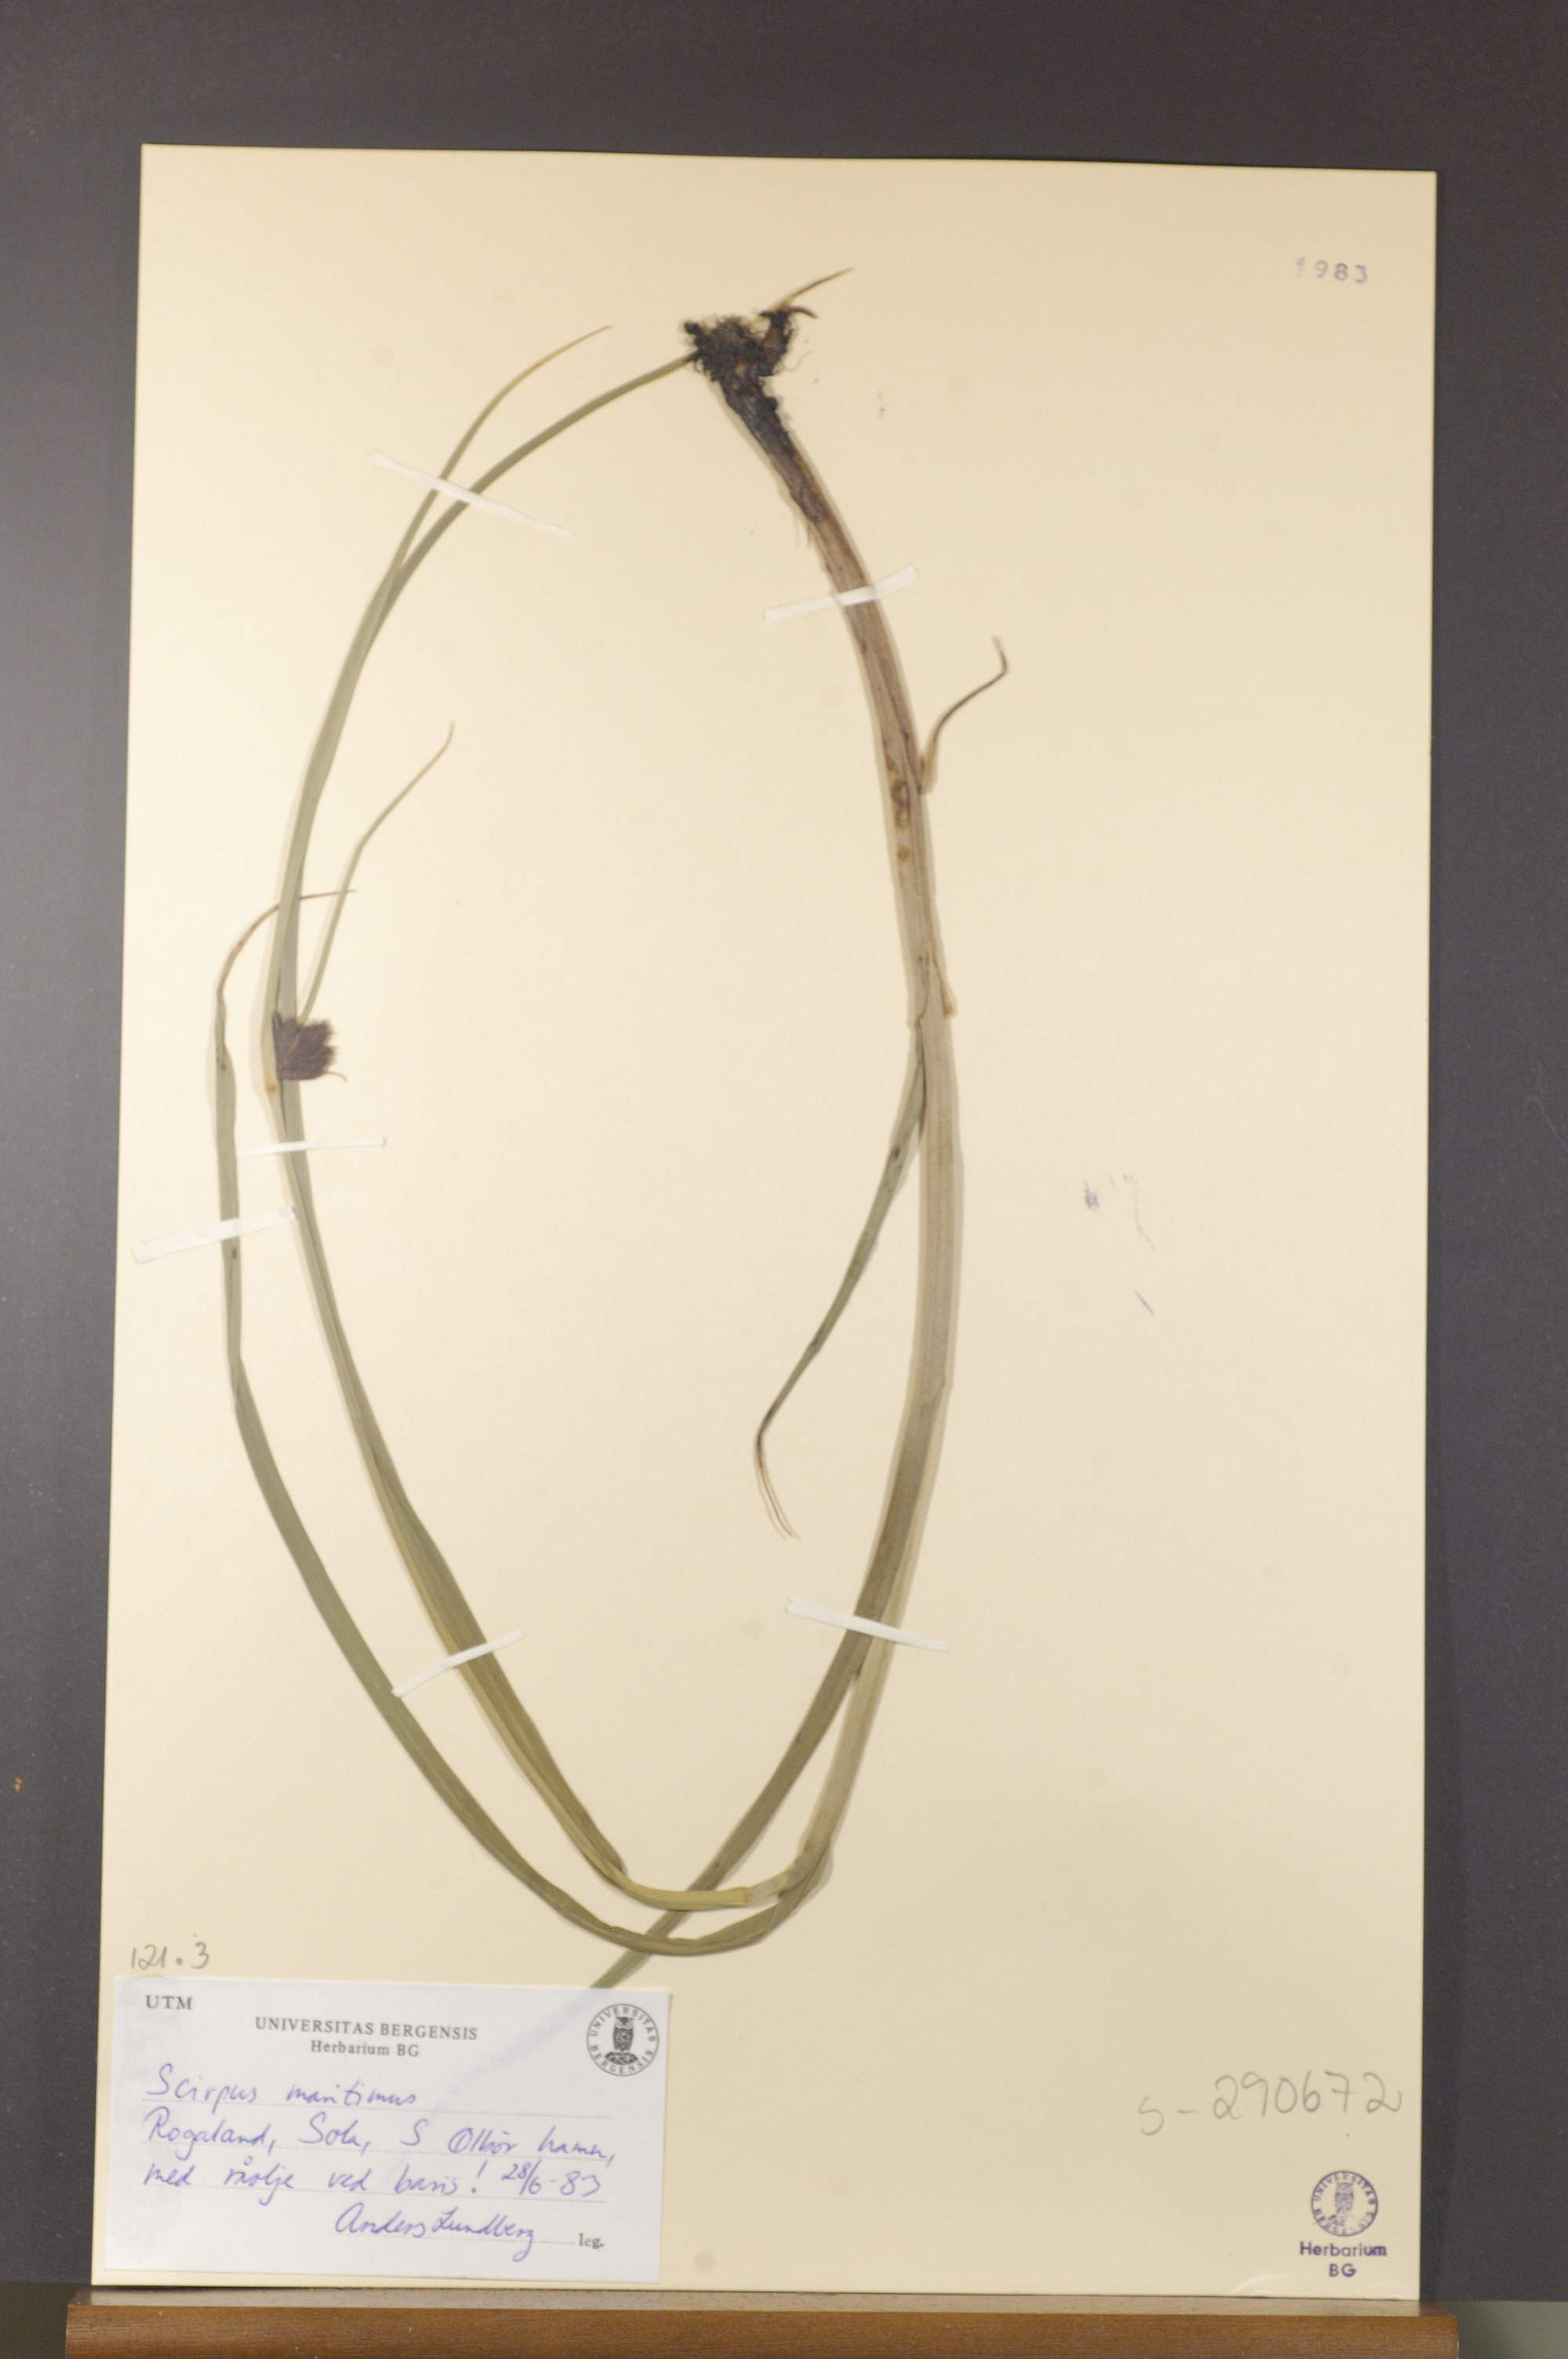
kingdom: Plantae
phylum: Tracheophyta
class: Liliopsida
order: Poales
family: Cyperaceae
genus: Bolboschoenus
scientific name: Bolboschoenus maritimus
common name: Sea club-rush
